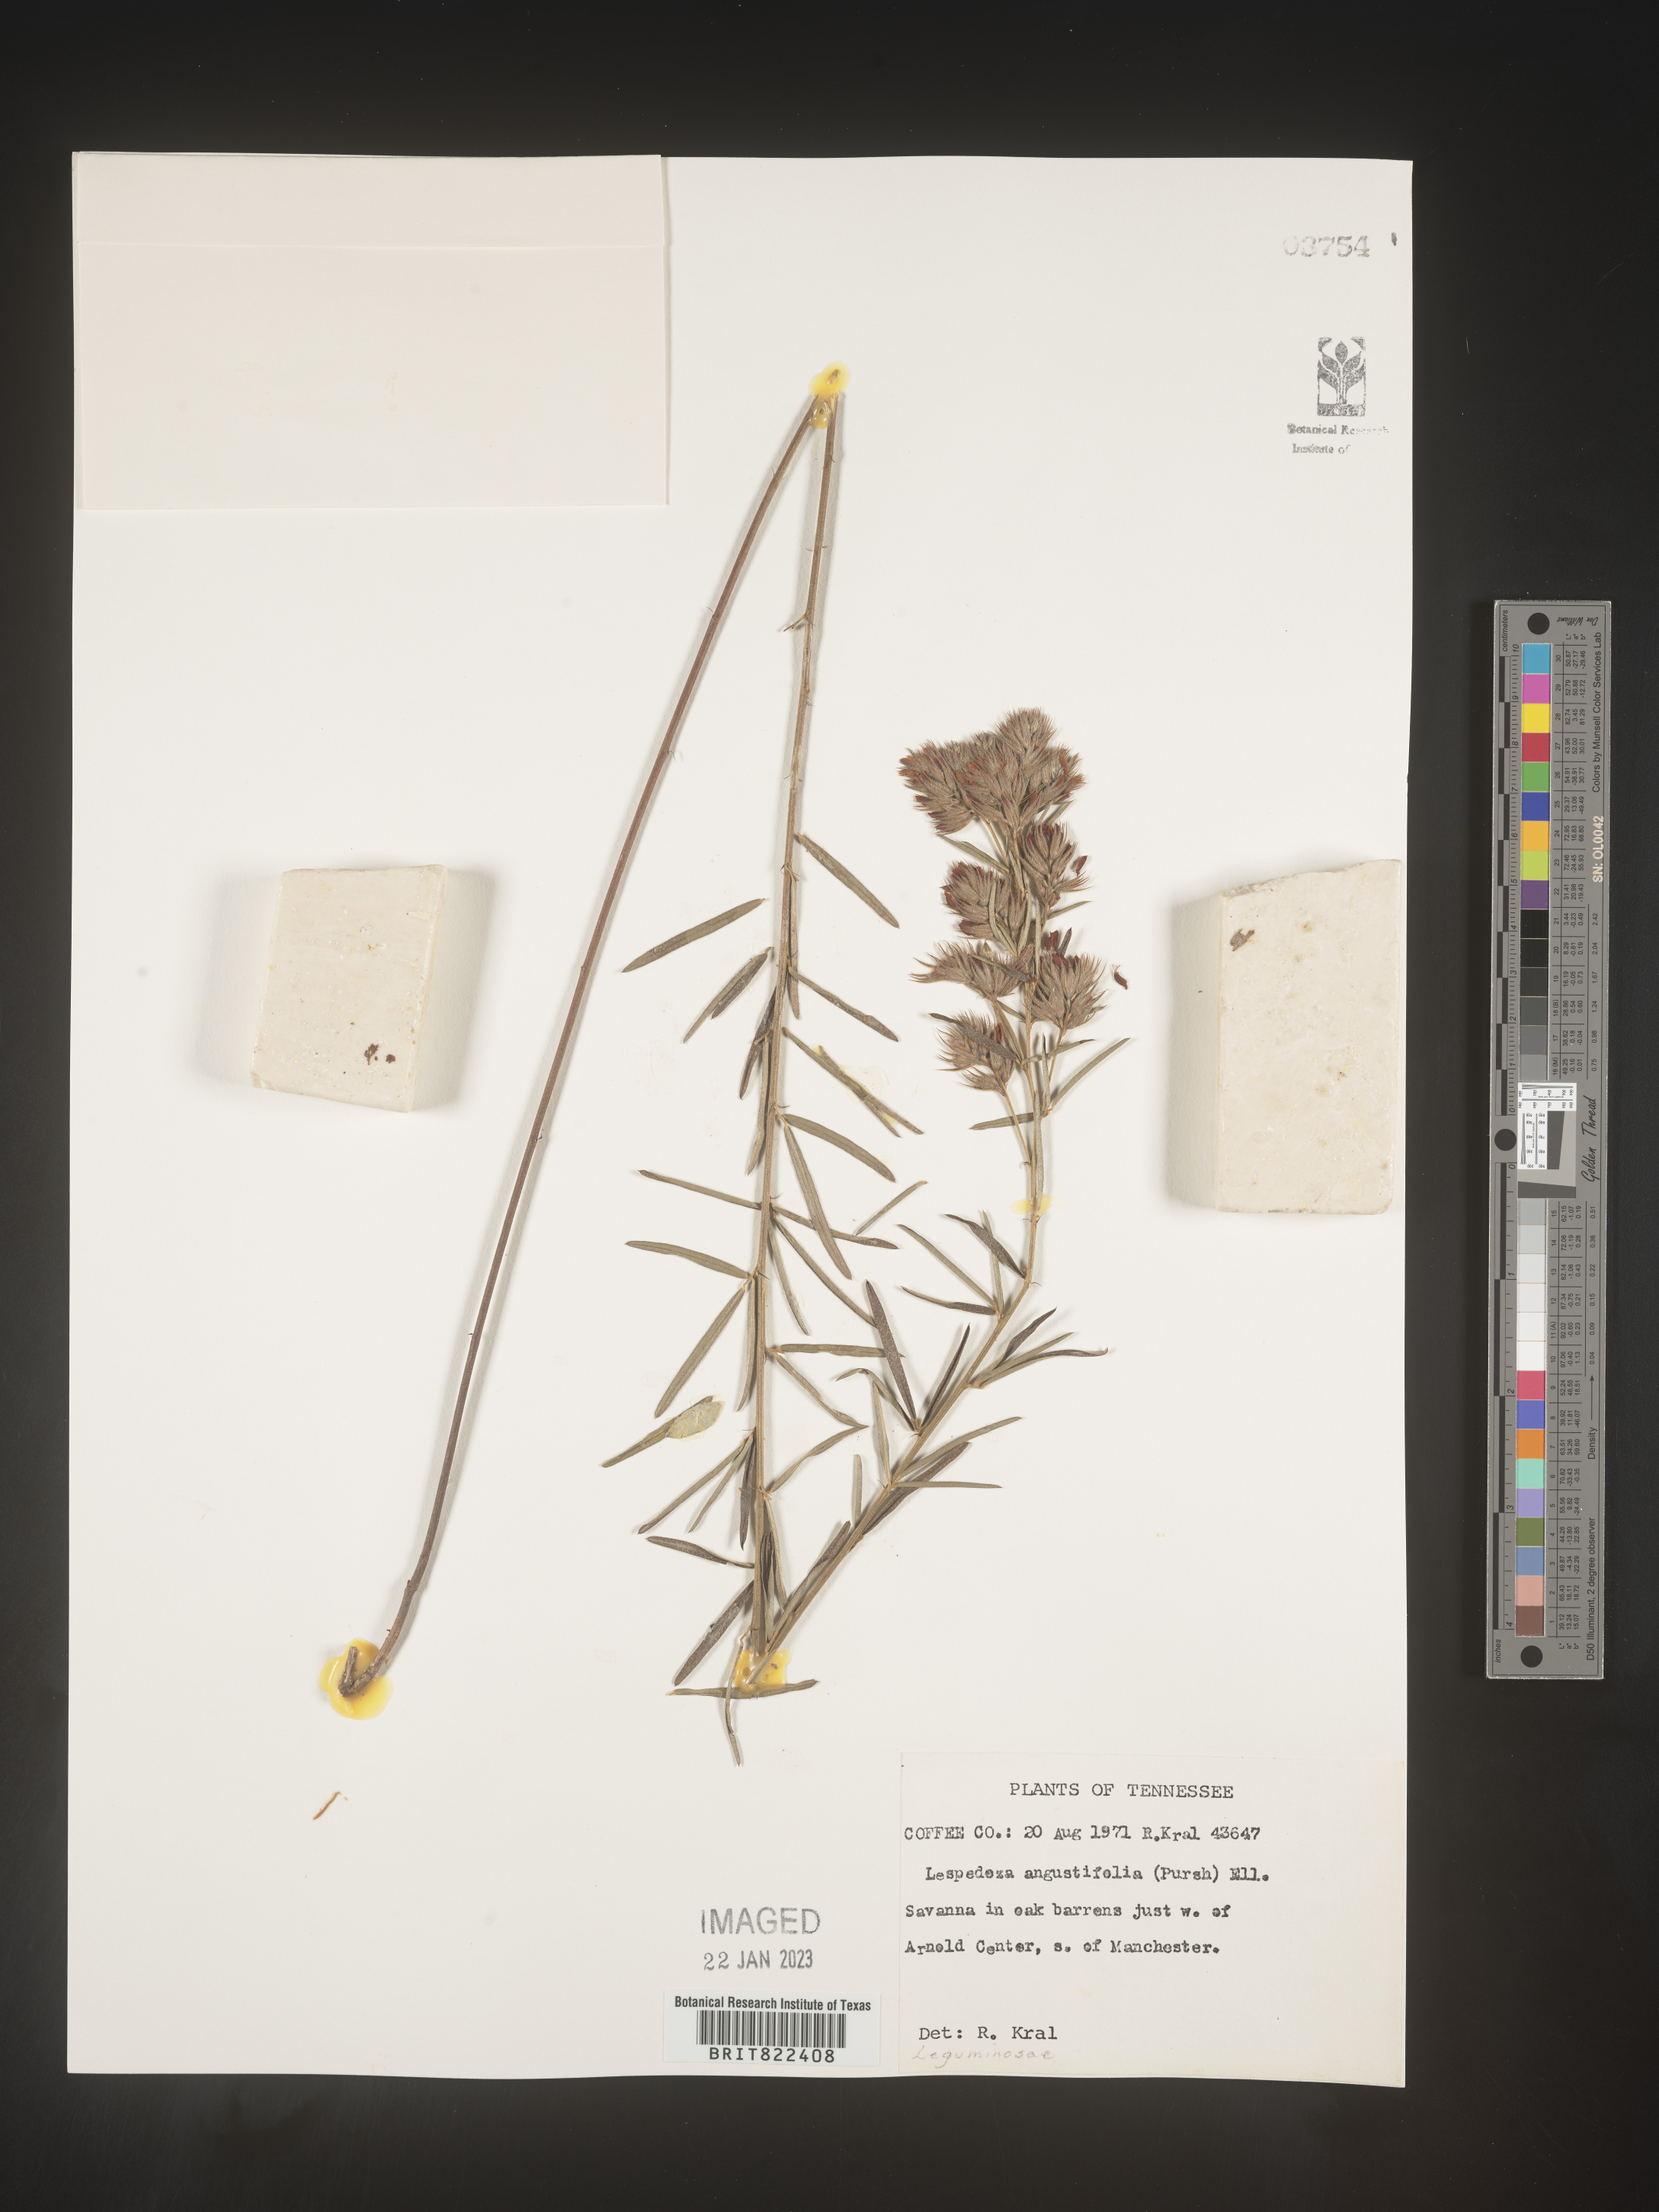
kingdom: Plantae
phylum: Tracheophyta
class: Magnoliopsida
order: Fabales
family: Fabaceae
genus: Lespedeza
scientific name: Lespedeza
